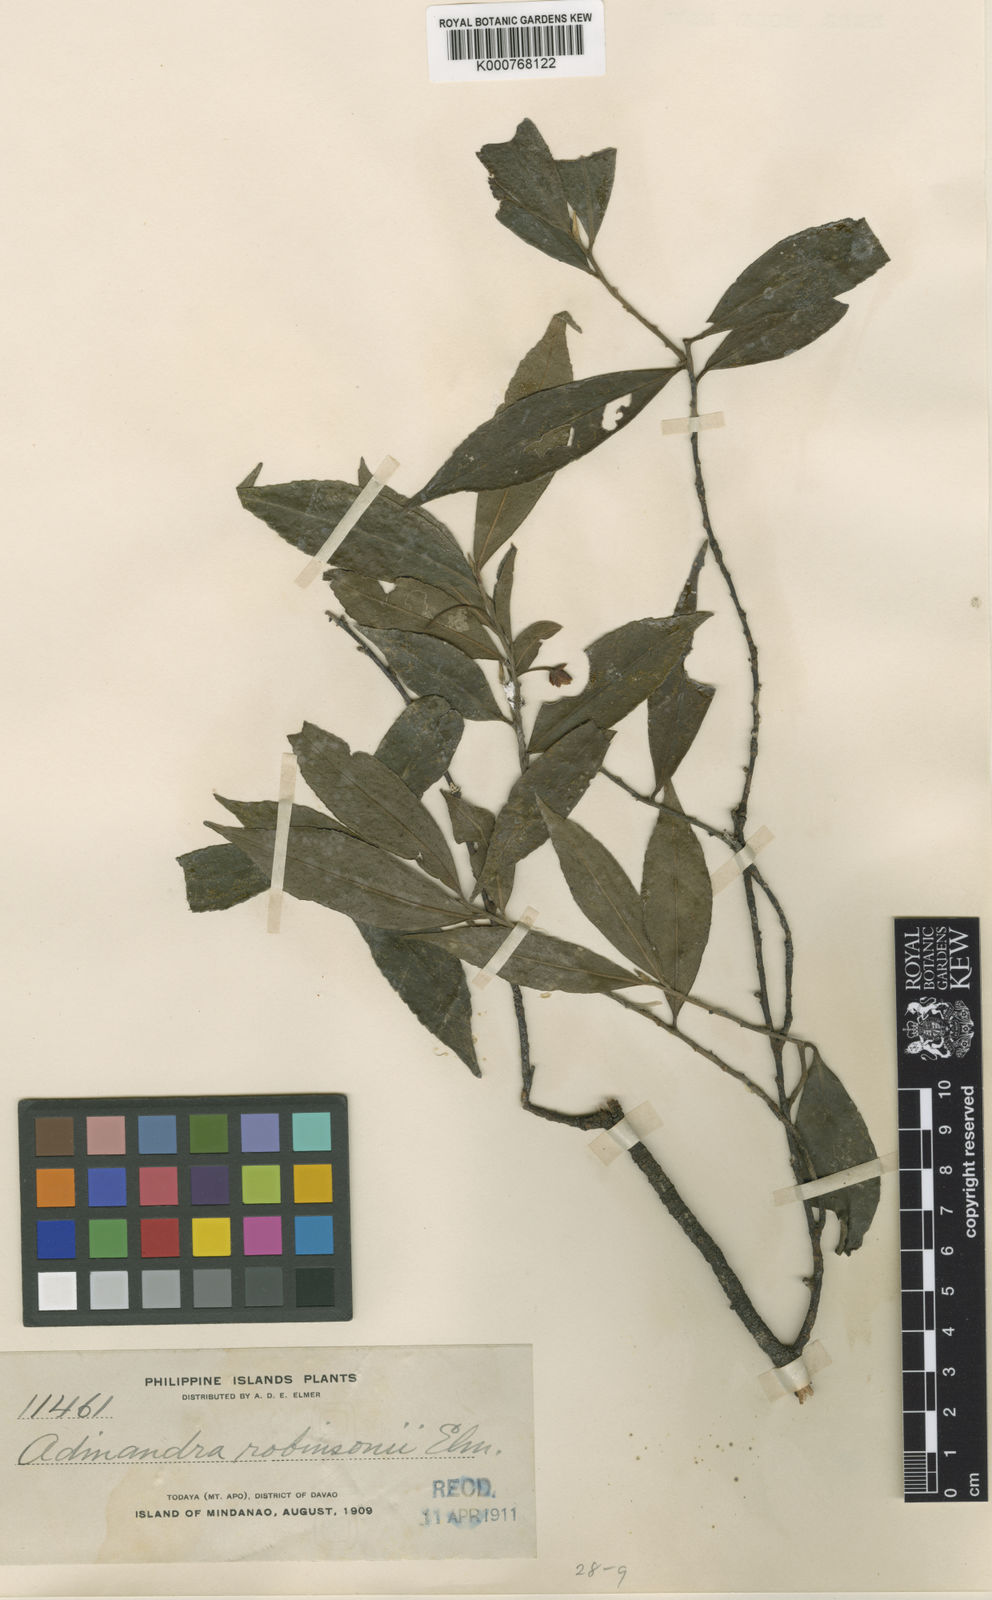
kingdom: Plantae
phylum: Tracheophyta
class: Magnoliopsida
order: Ericales
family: Pentaphylacaceae
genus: Adinandra
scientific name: Adinandra elliptica
